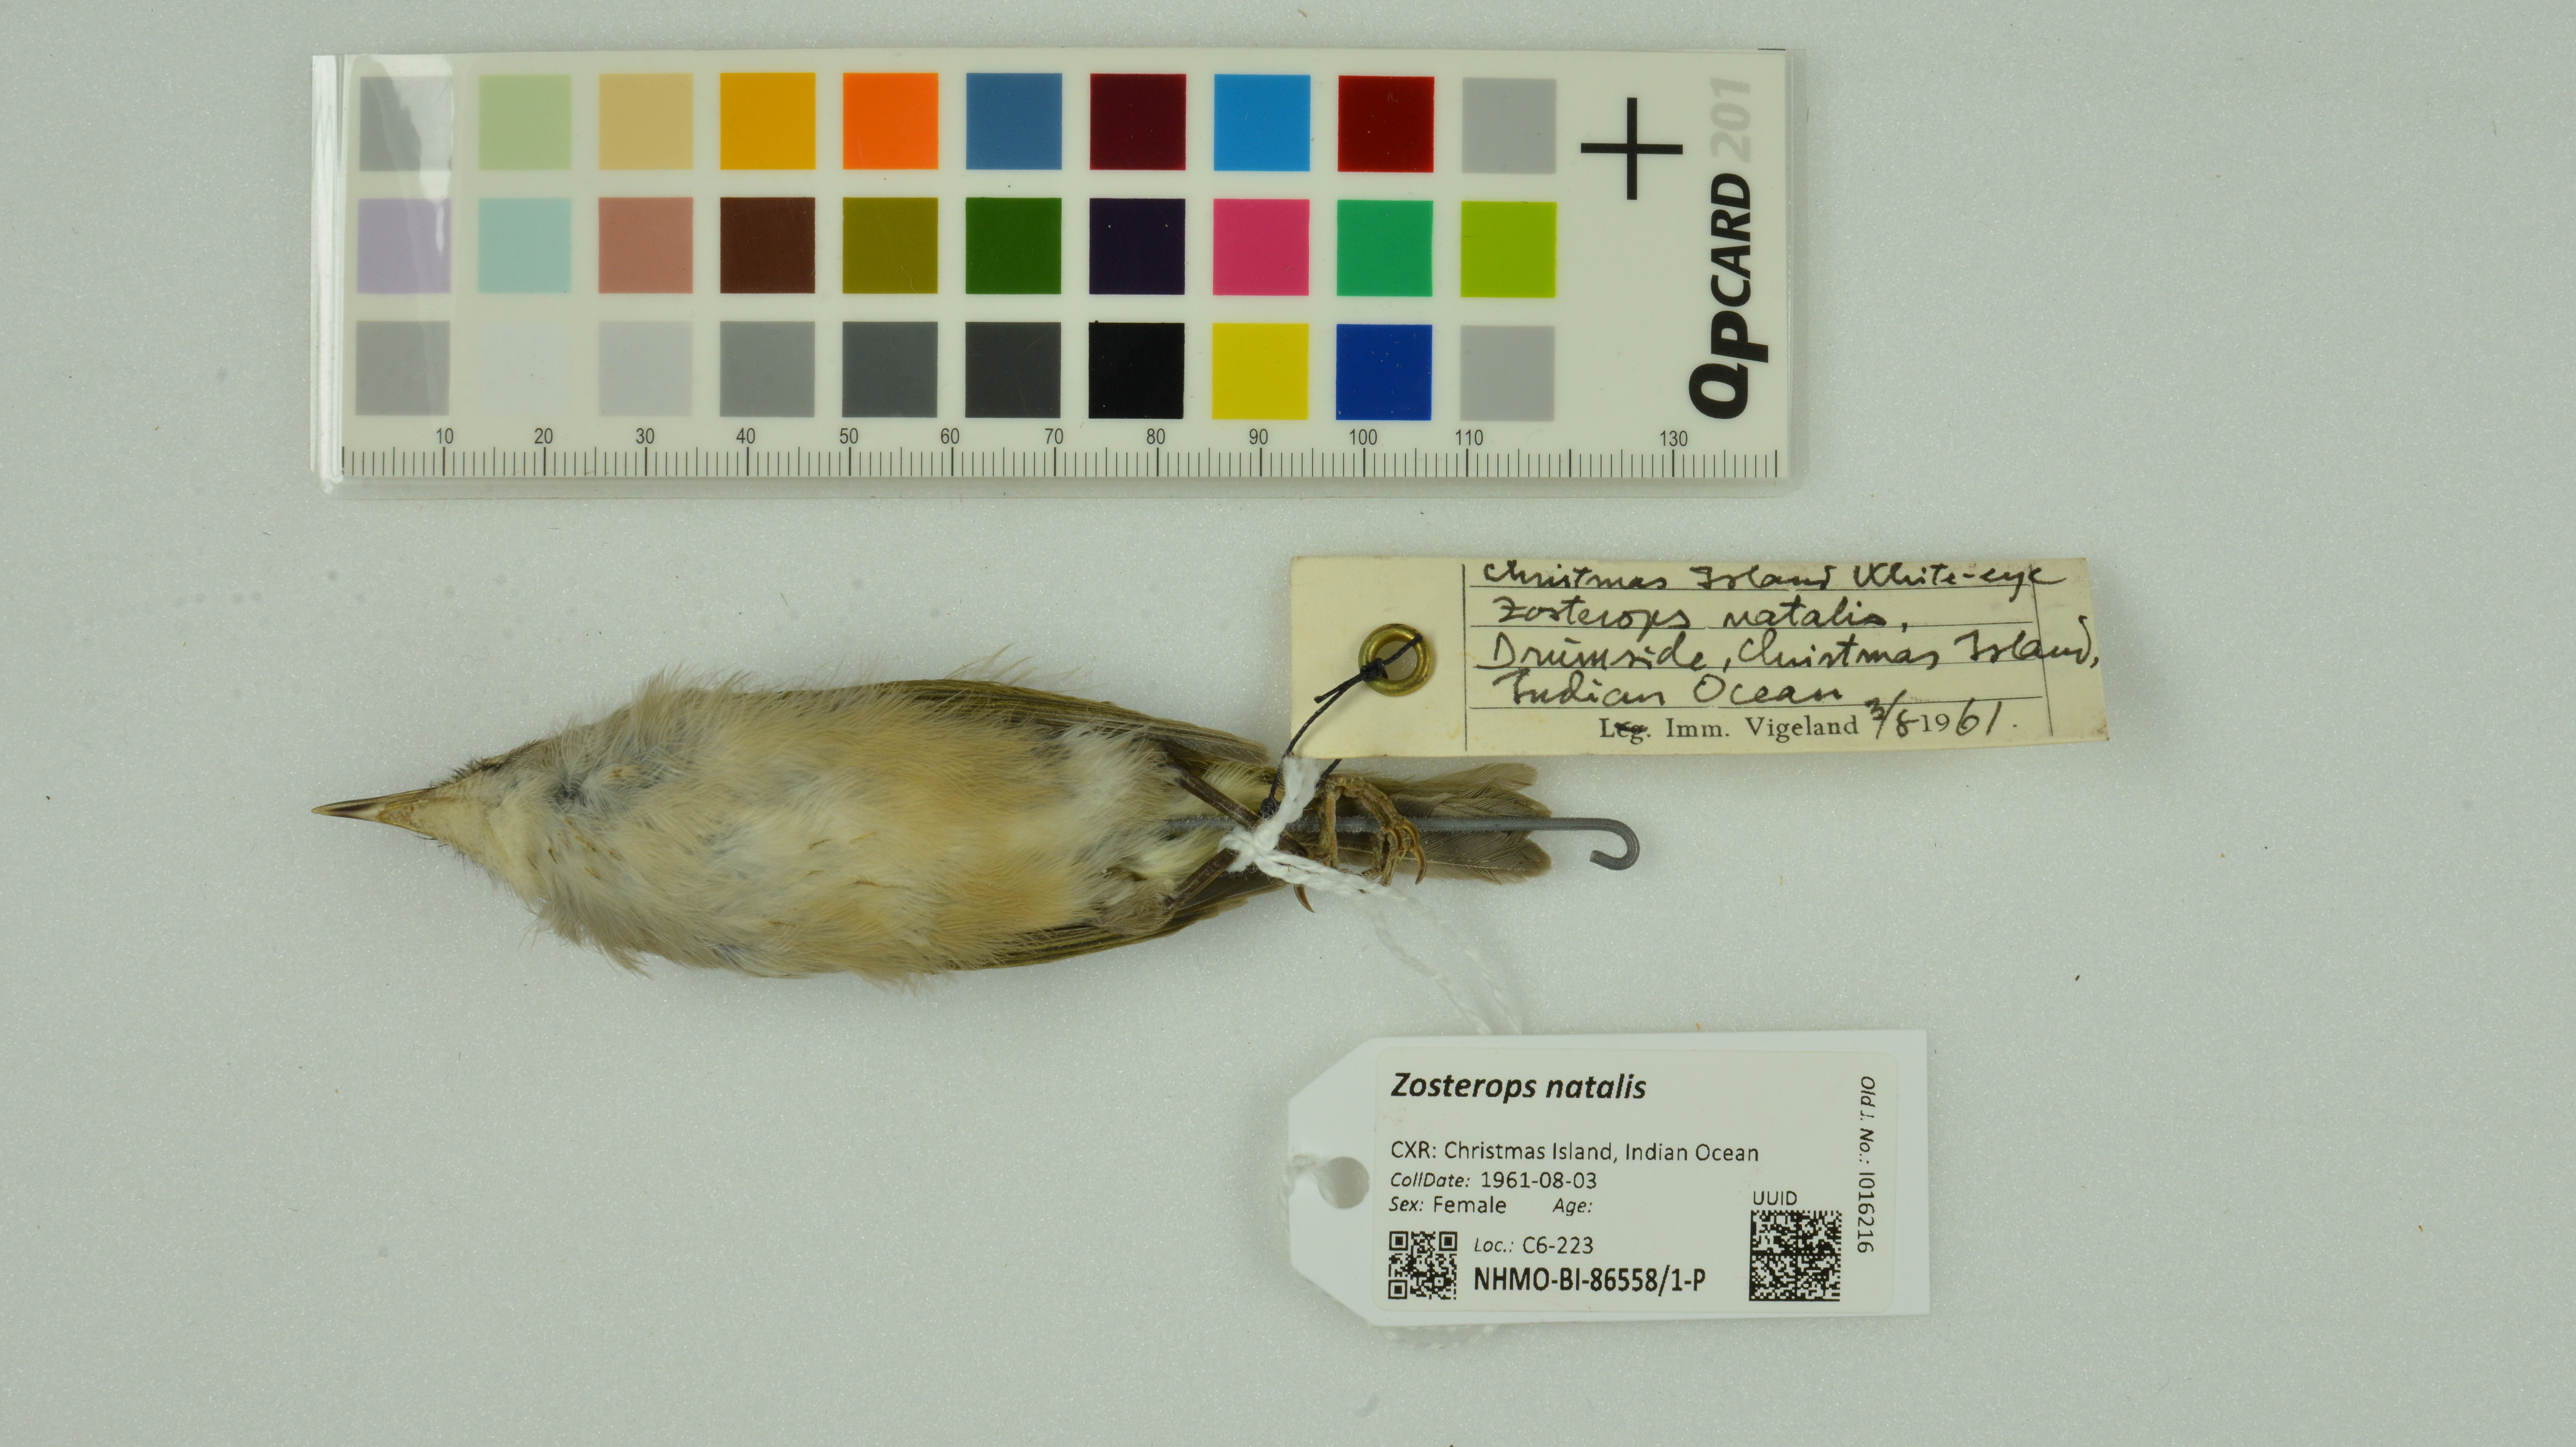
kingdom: Animalia
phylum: Chordata
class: Aves
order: Passeriformes
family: Zosteropidae
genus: Zosterops
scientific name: Zosterops natalis
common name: Christmas white-eye
